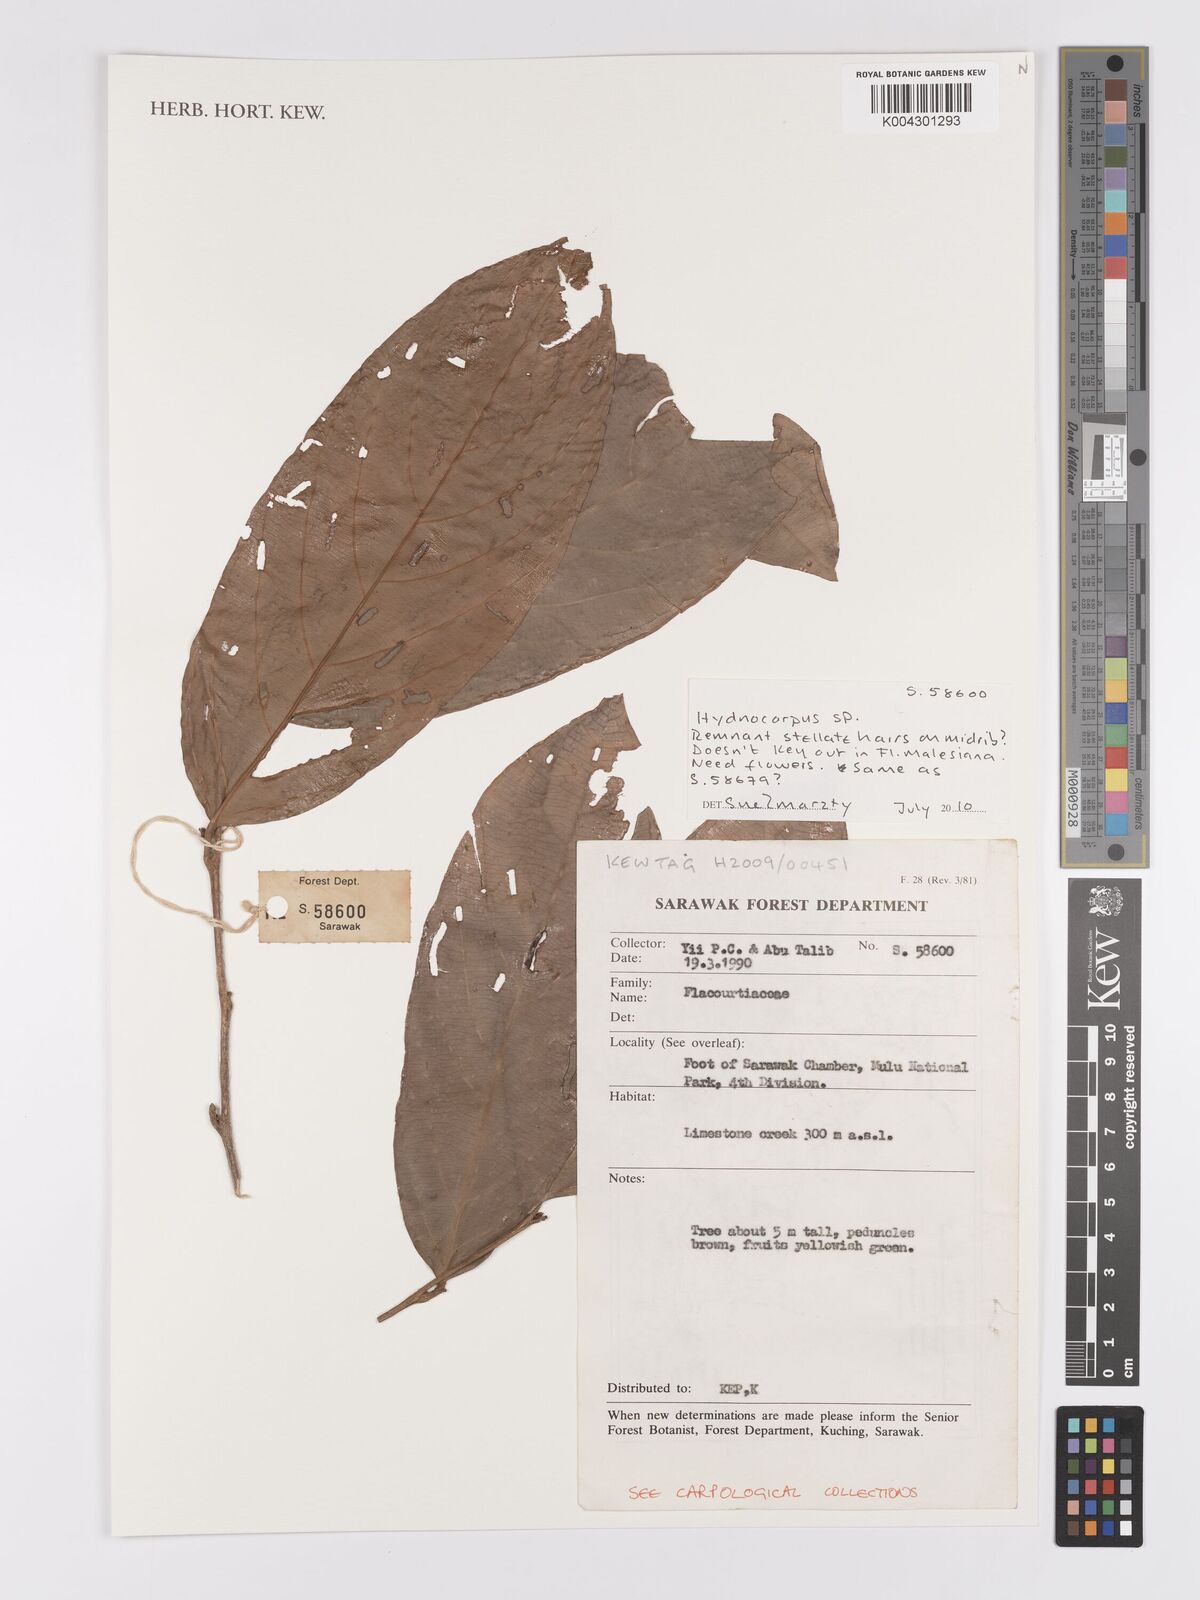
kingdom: Plantae
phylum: Tracheophyta
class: Magnoliopsida
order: Malpighiales
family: Achariaceae
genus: Hydnocarpus
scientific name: Hydnocarpus
